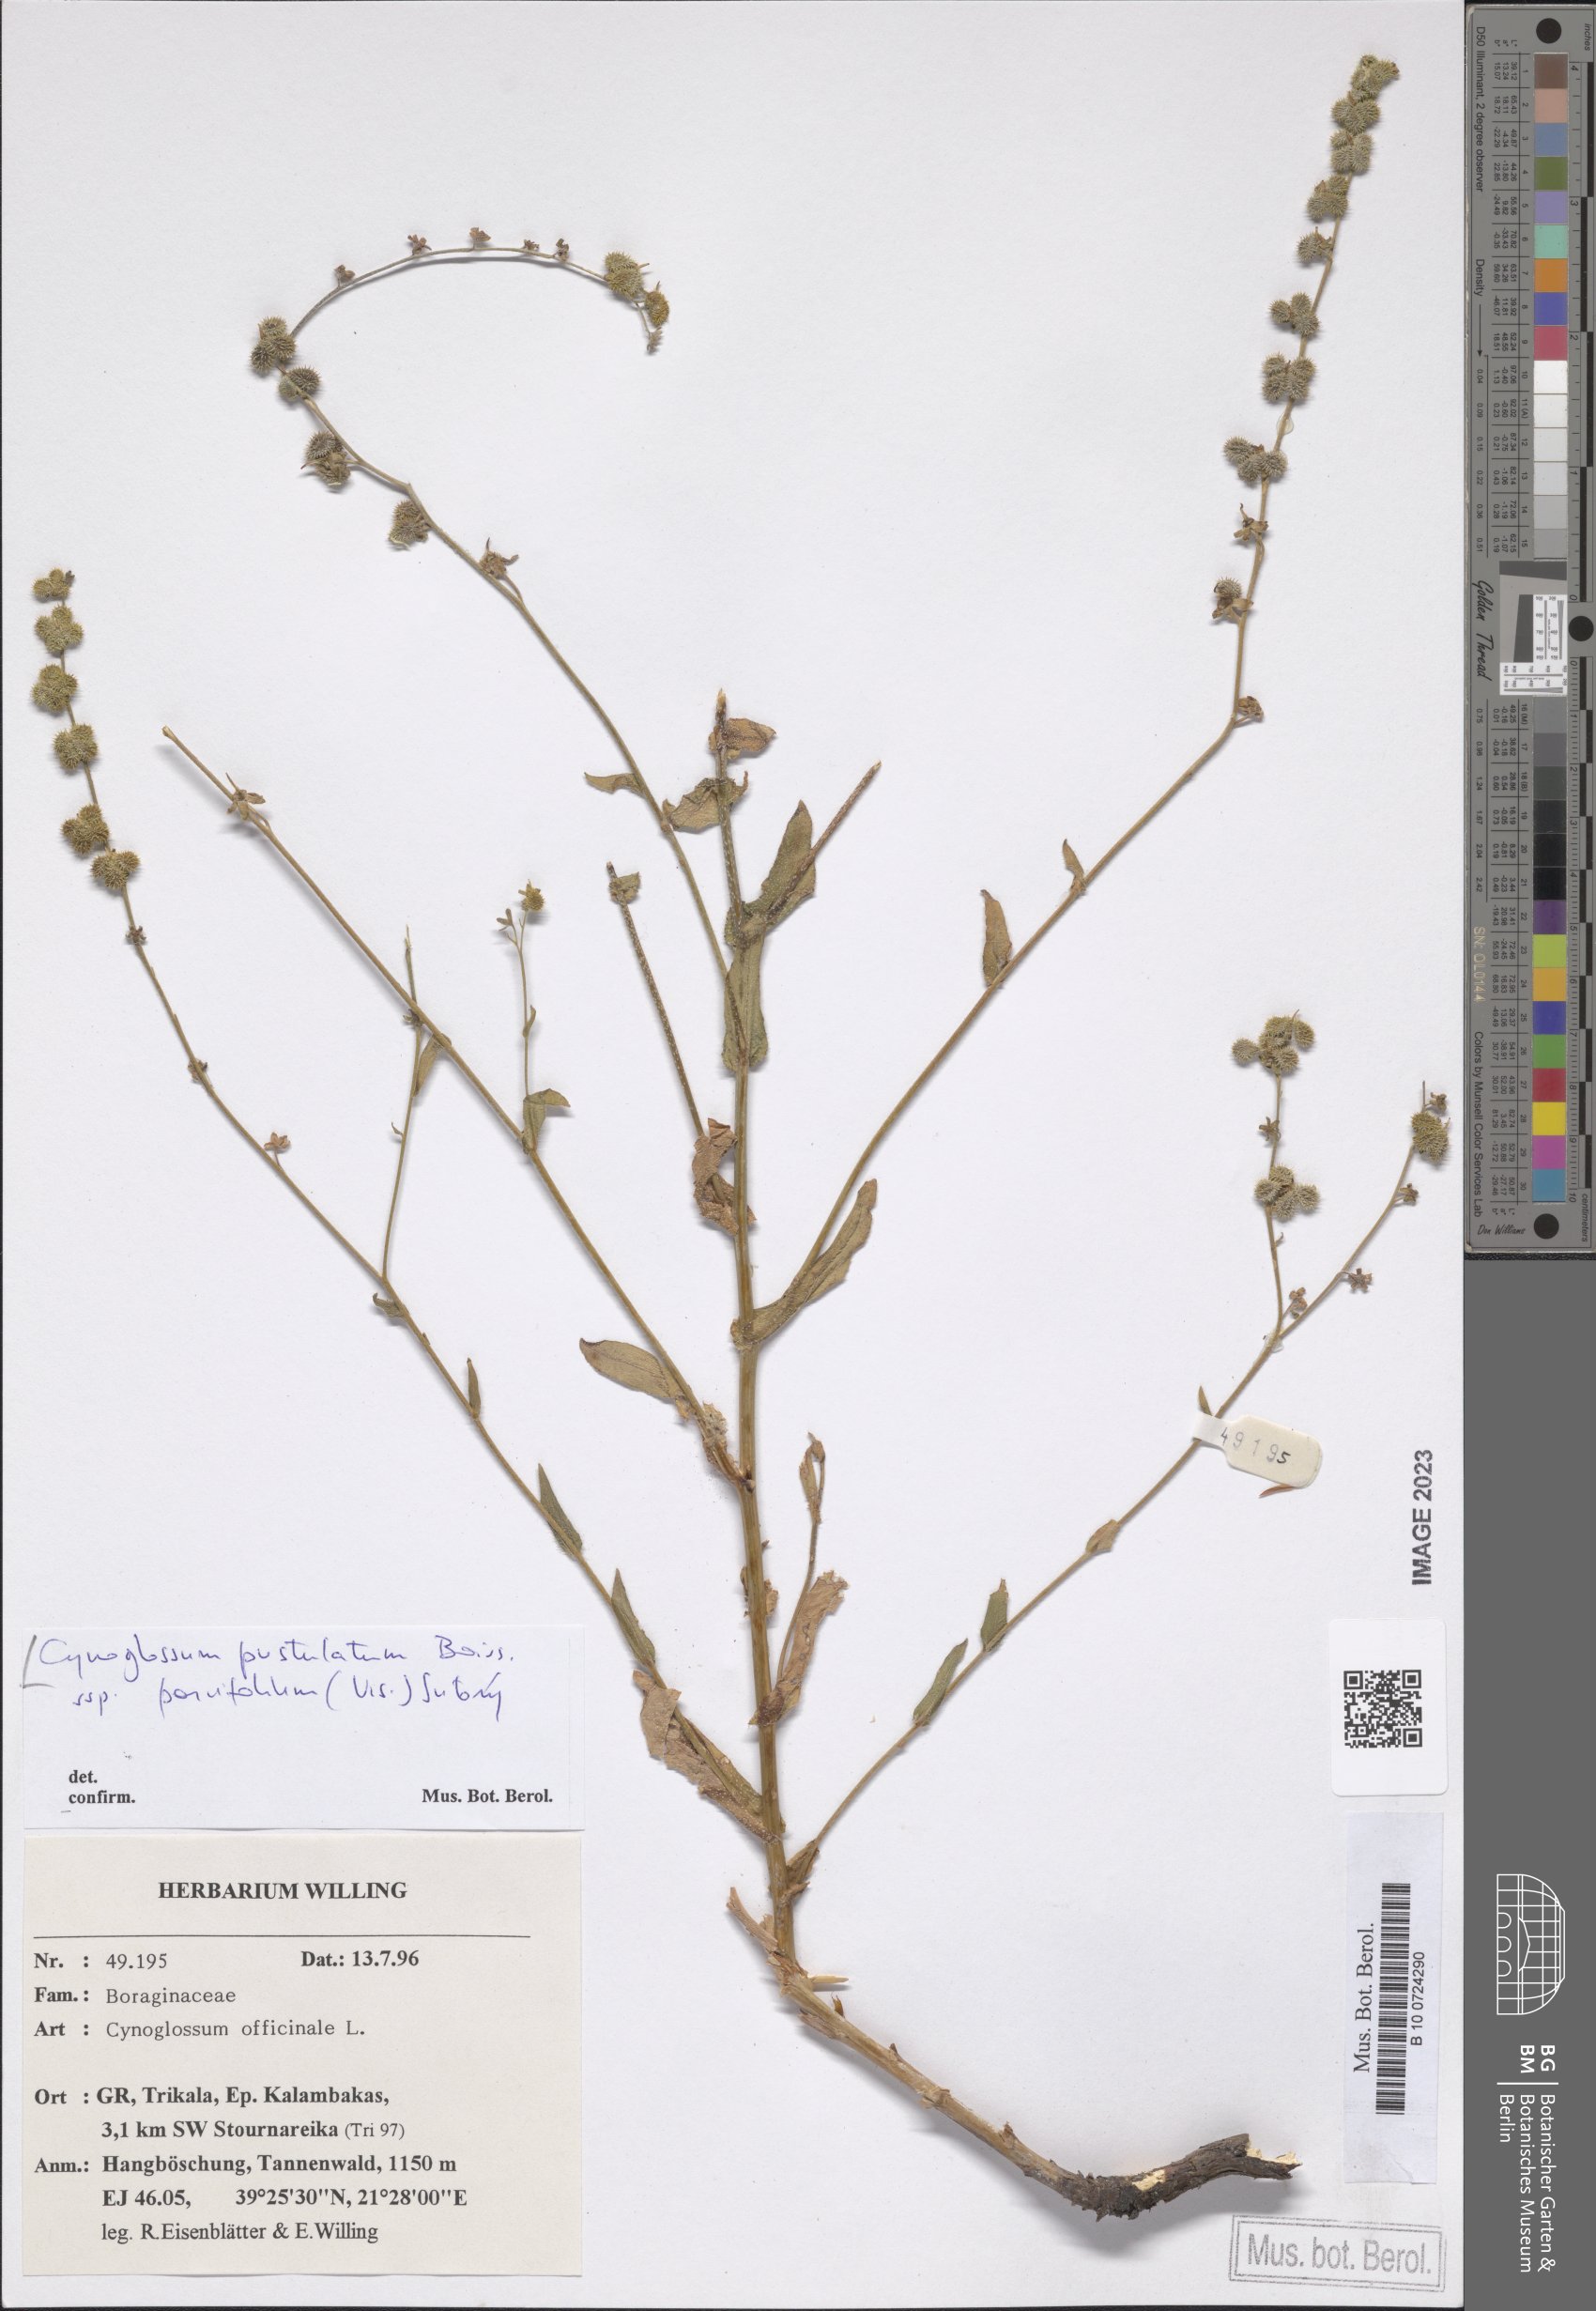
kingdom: Plantae
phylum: Tracheophyta
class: Magnoliopsida
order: Boraginales
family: Boraginaceae
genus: Cynoglossum
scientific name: Cynoglossum pustulatum
